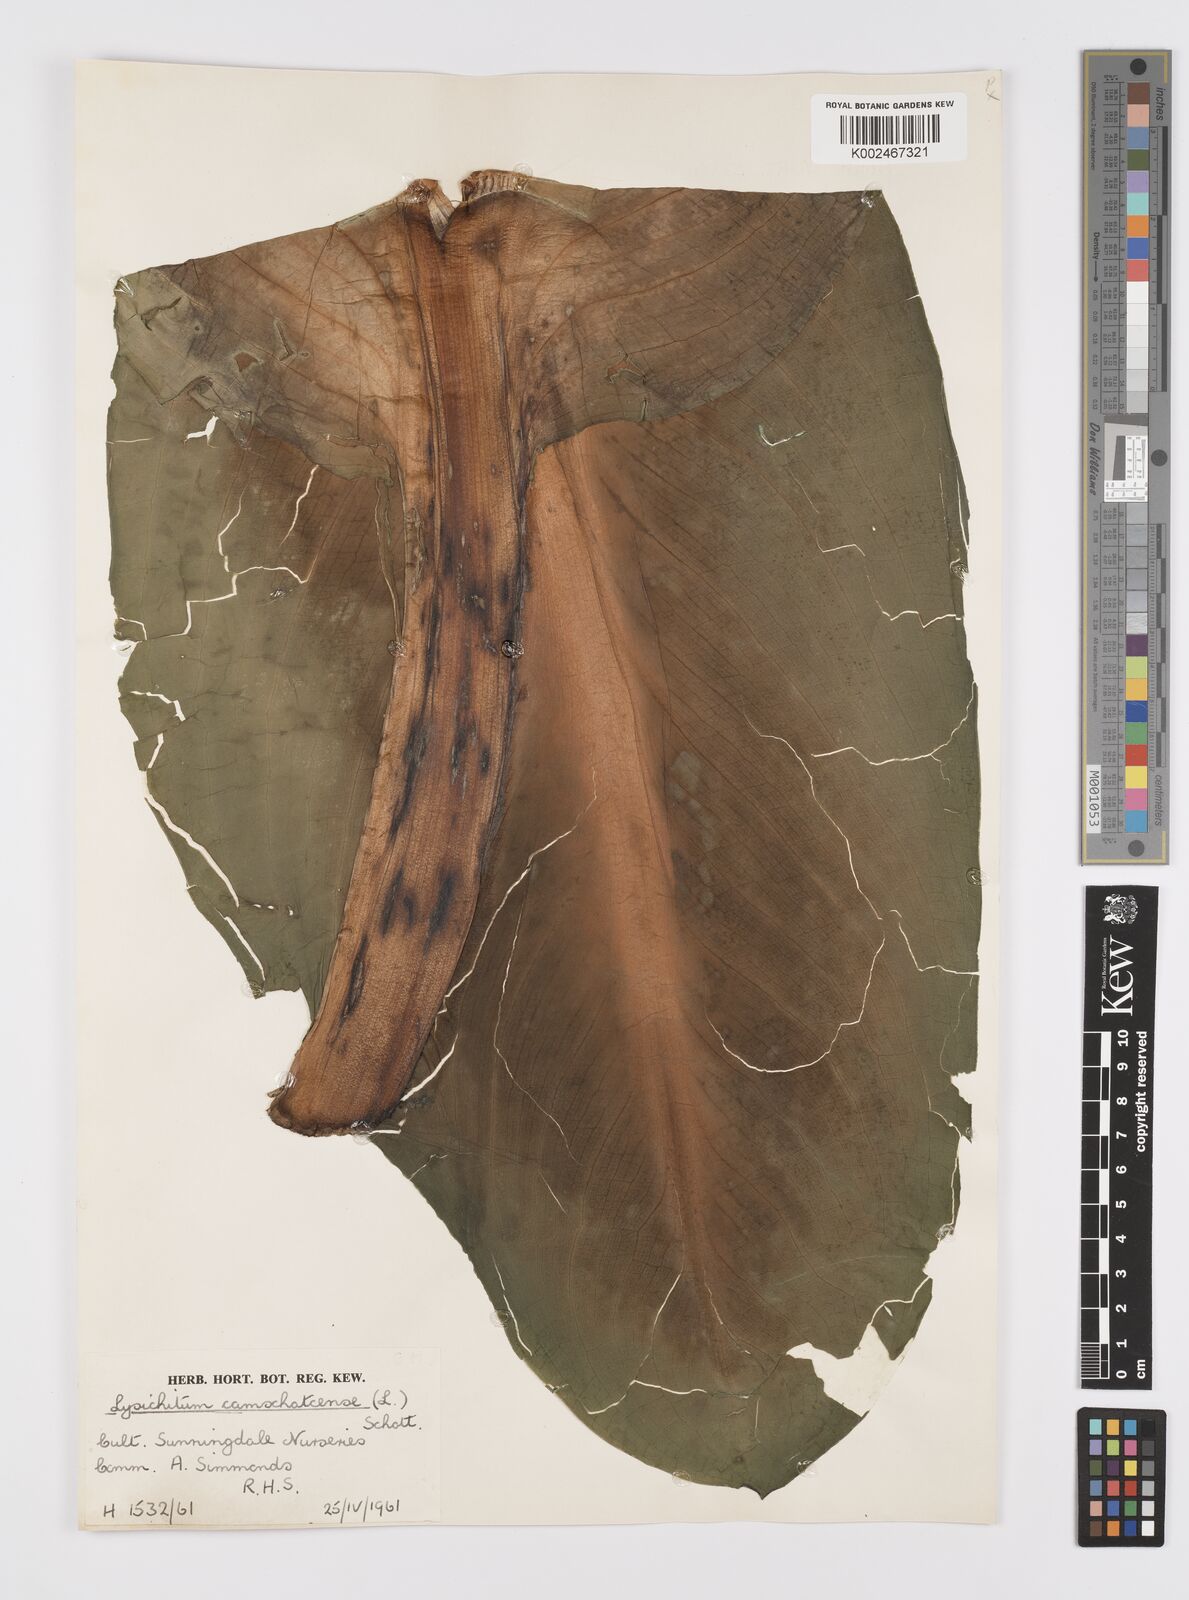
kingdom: Plantae
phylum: Tracheophyta
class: Liliopsida
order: Alismatales
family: Araceae
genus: Lysichiton
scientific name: Lysichiton americanus
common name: American skunk cabbage
